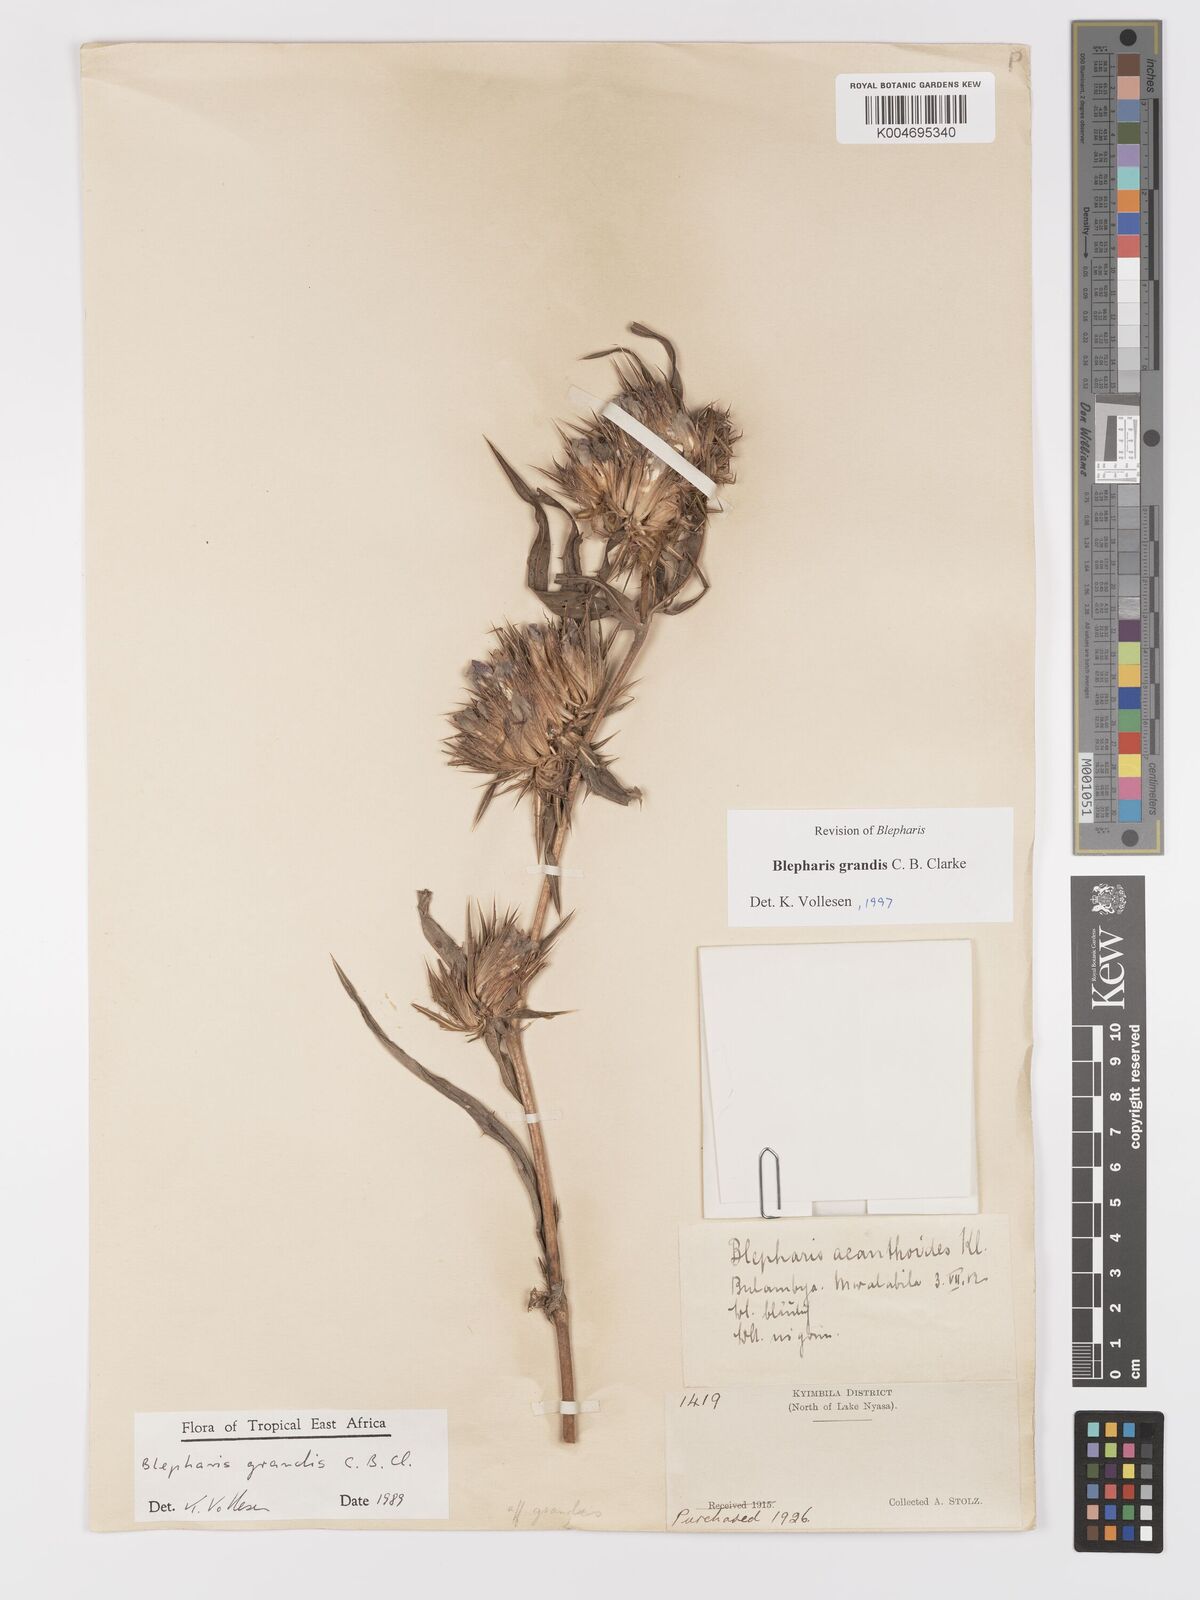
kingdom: Plantae
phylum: Tracheophyta
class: Magnoliopsida
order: Lamiales
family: Acanthaceae
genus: Blepharis
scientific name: Blepharis grandis
